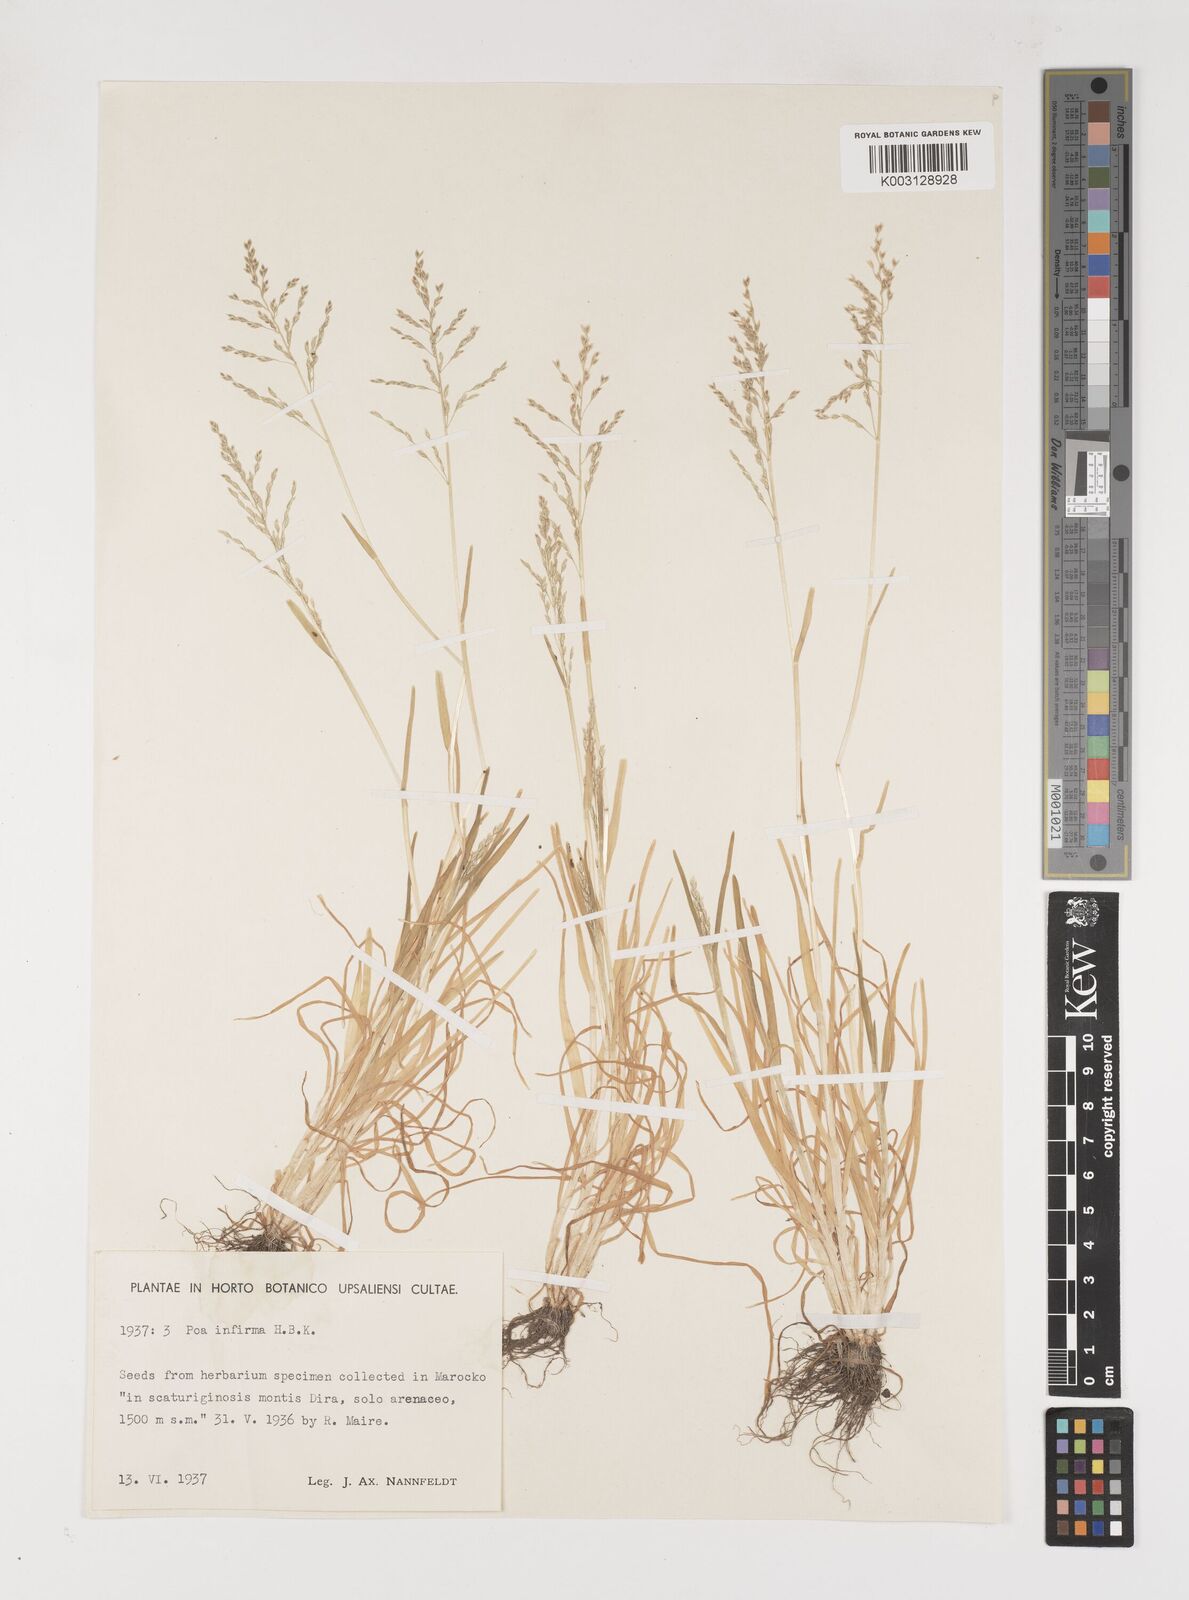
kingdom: Plantae
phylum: Tracheophyta
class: Liliopsida
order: Poales
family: Poaceae
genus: Poa
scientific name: Poa infirma
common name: Weak bluegrass
